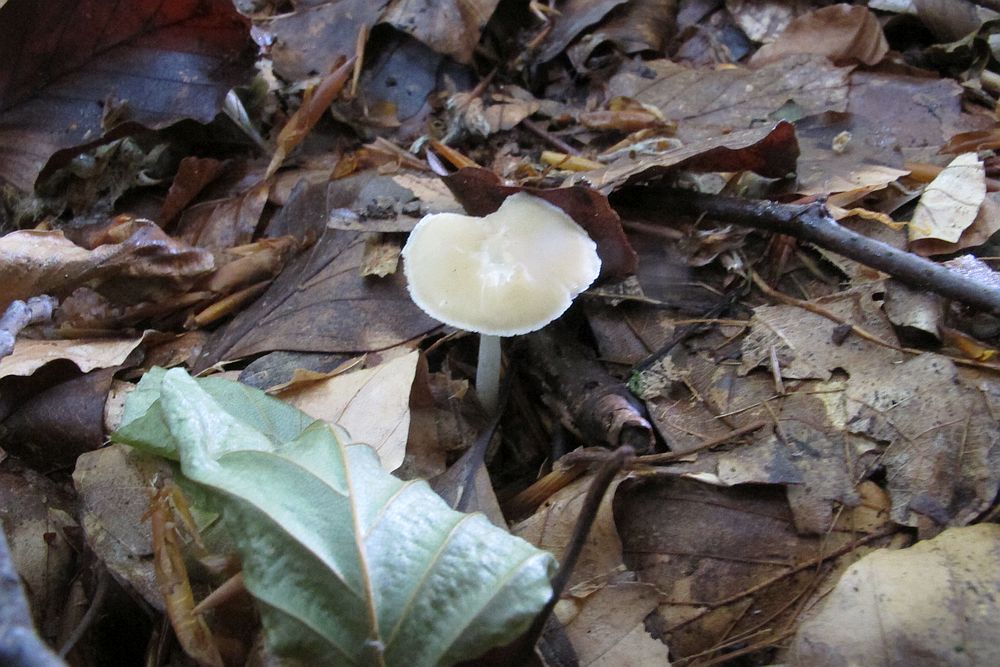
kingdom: Fungi
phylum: Basidiomycota
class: Agaricomycetes
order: Agaricales
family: Porotheleaceae
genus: Hydropodia
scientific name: Hydropodia subalpina
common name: vår-fnugfod
